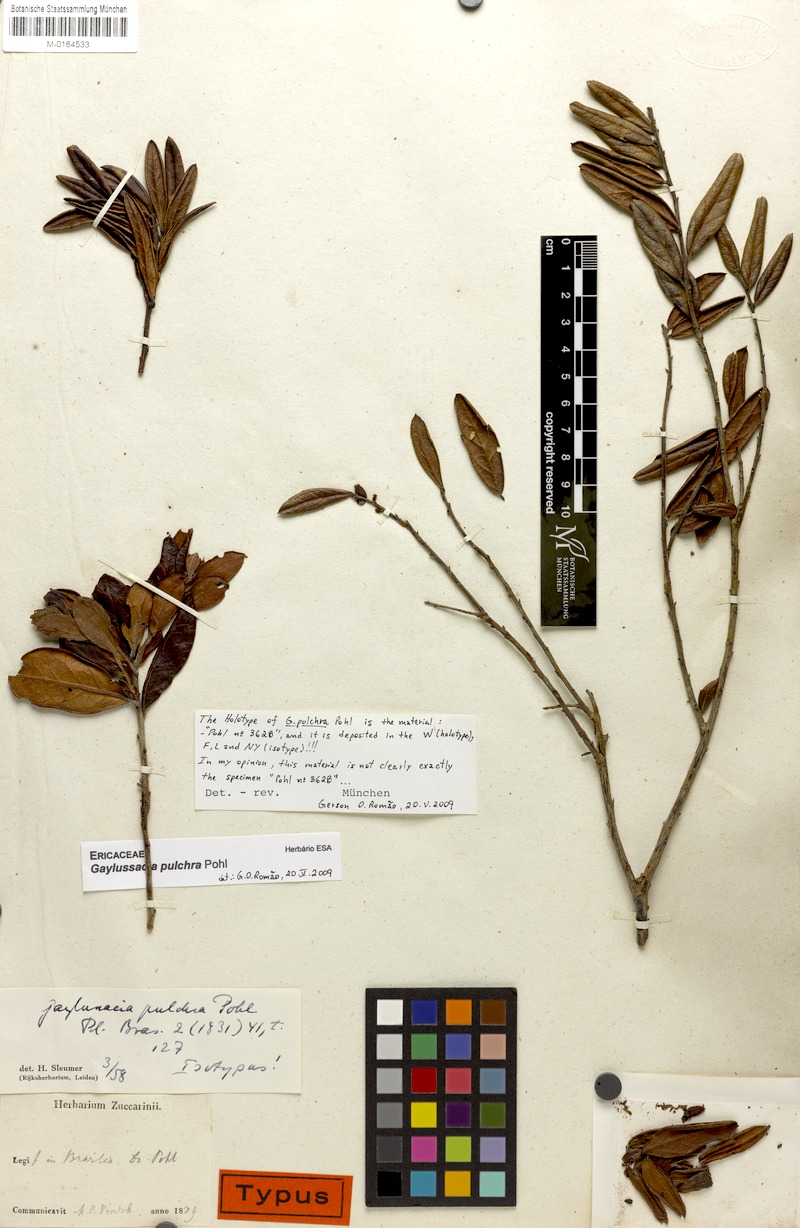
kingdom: Plantae
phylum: Tracheophyta
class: Magnoliopsida
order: Ericales
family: Ericaceae
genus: Gaylussacia
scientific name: Gaylussacia pulchra
